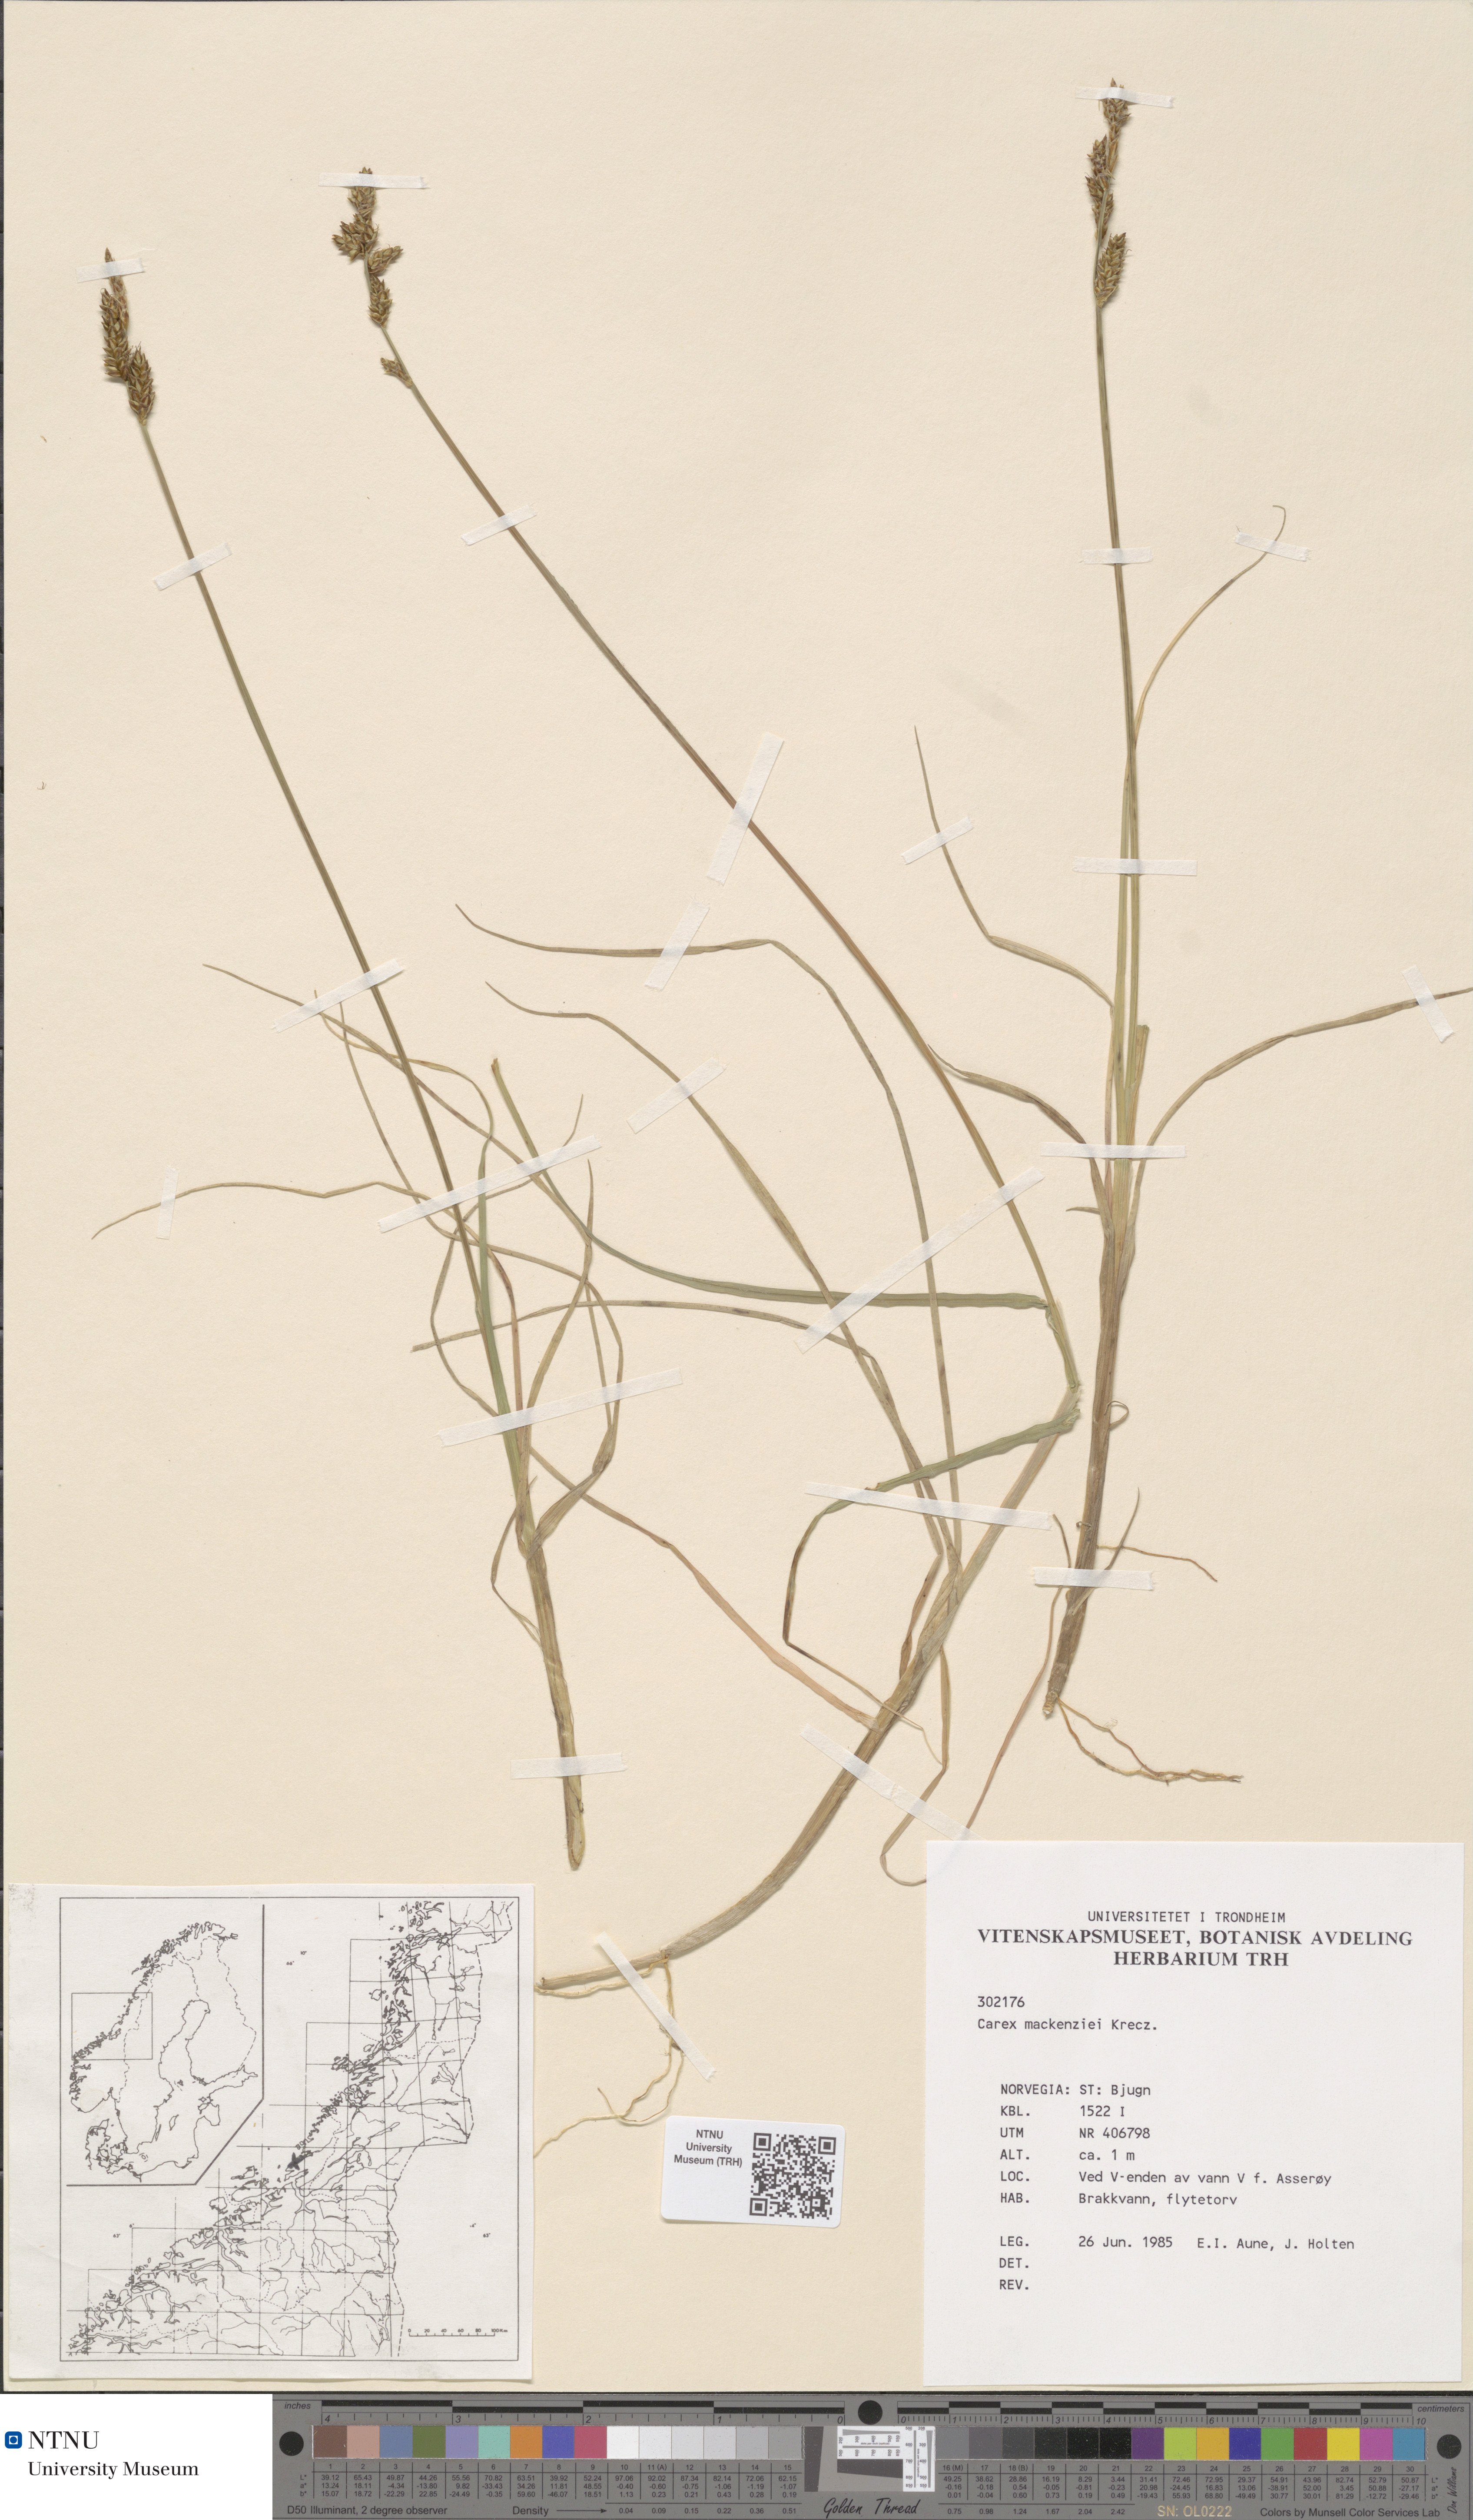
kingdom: Plantae
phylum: Tracheophyta
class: Liliopsida
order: Poales
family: Cyperaceae
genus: Carex
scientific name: Carex mackenziei
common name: Mackenzie's sedge
